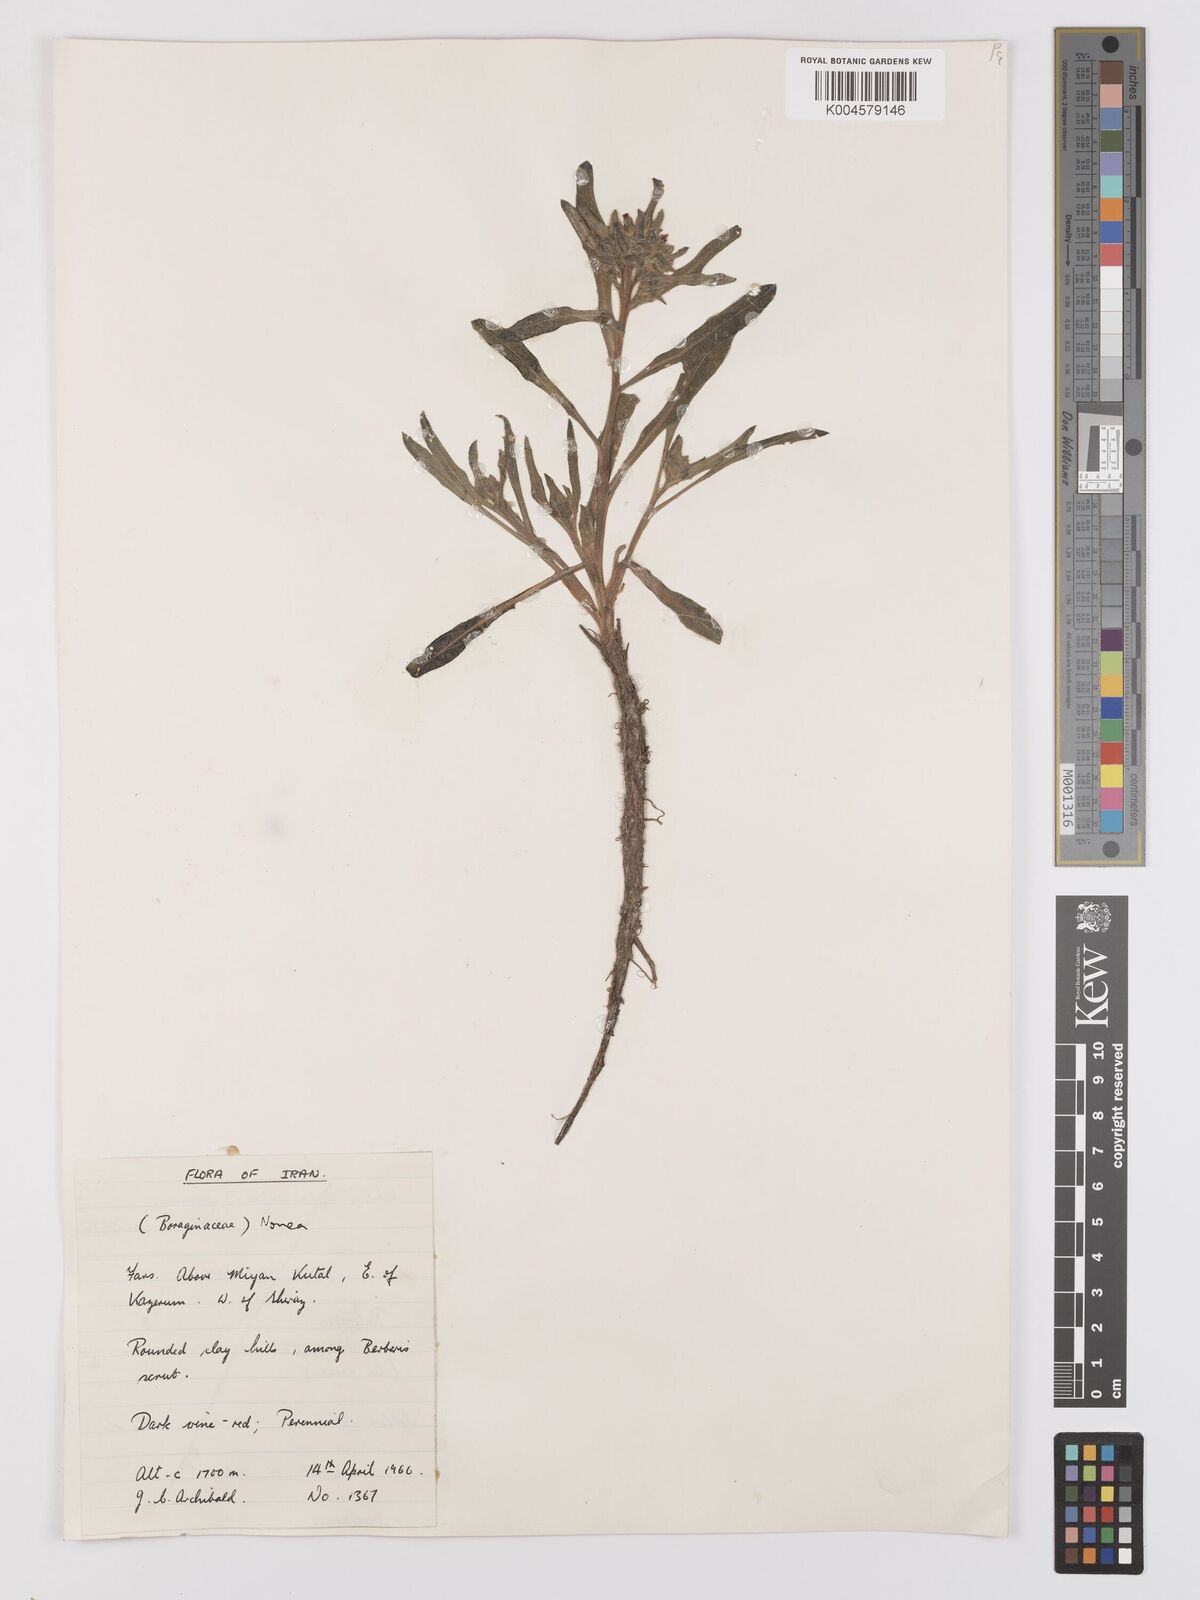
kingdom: Plantae
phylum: Tracheophyta
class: Magnoliopsida
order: Boraginales
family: Boraginaceae
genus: Nonea
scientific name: Nonea
